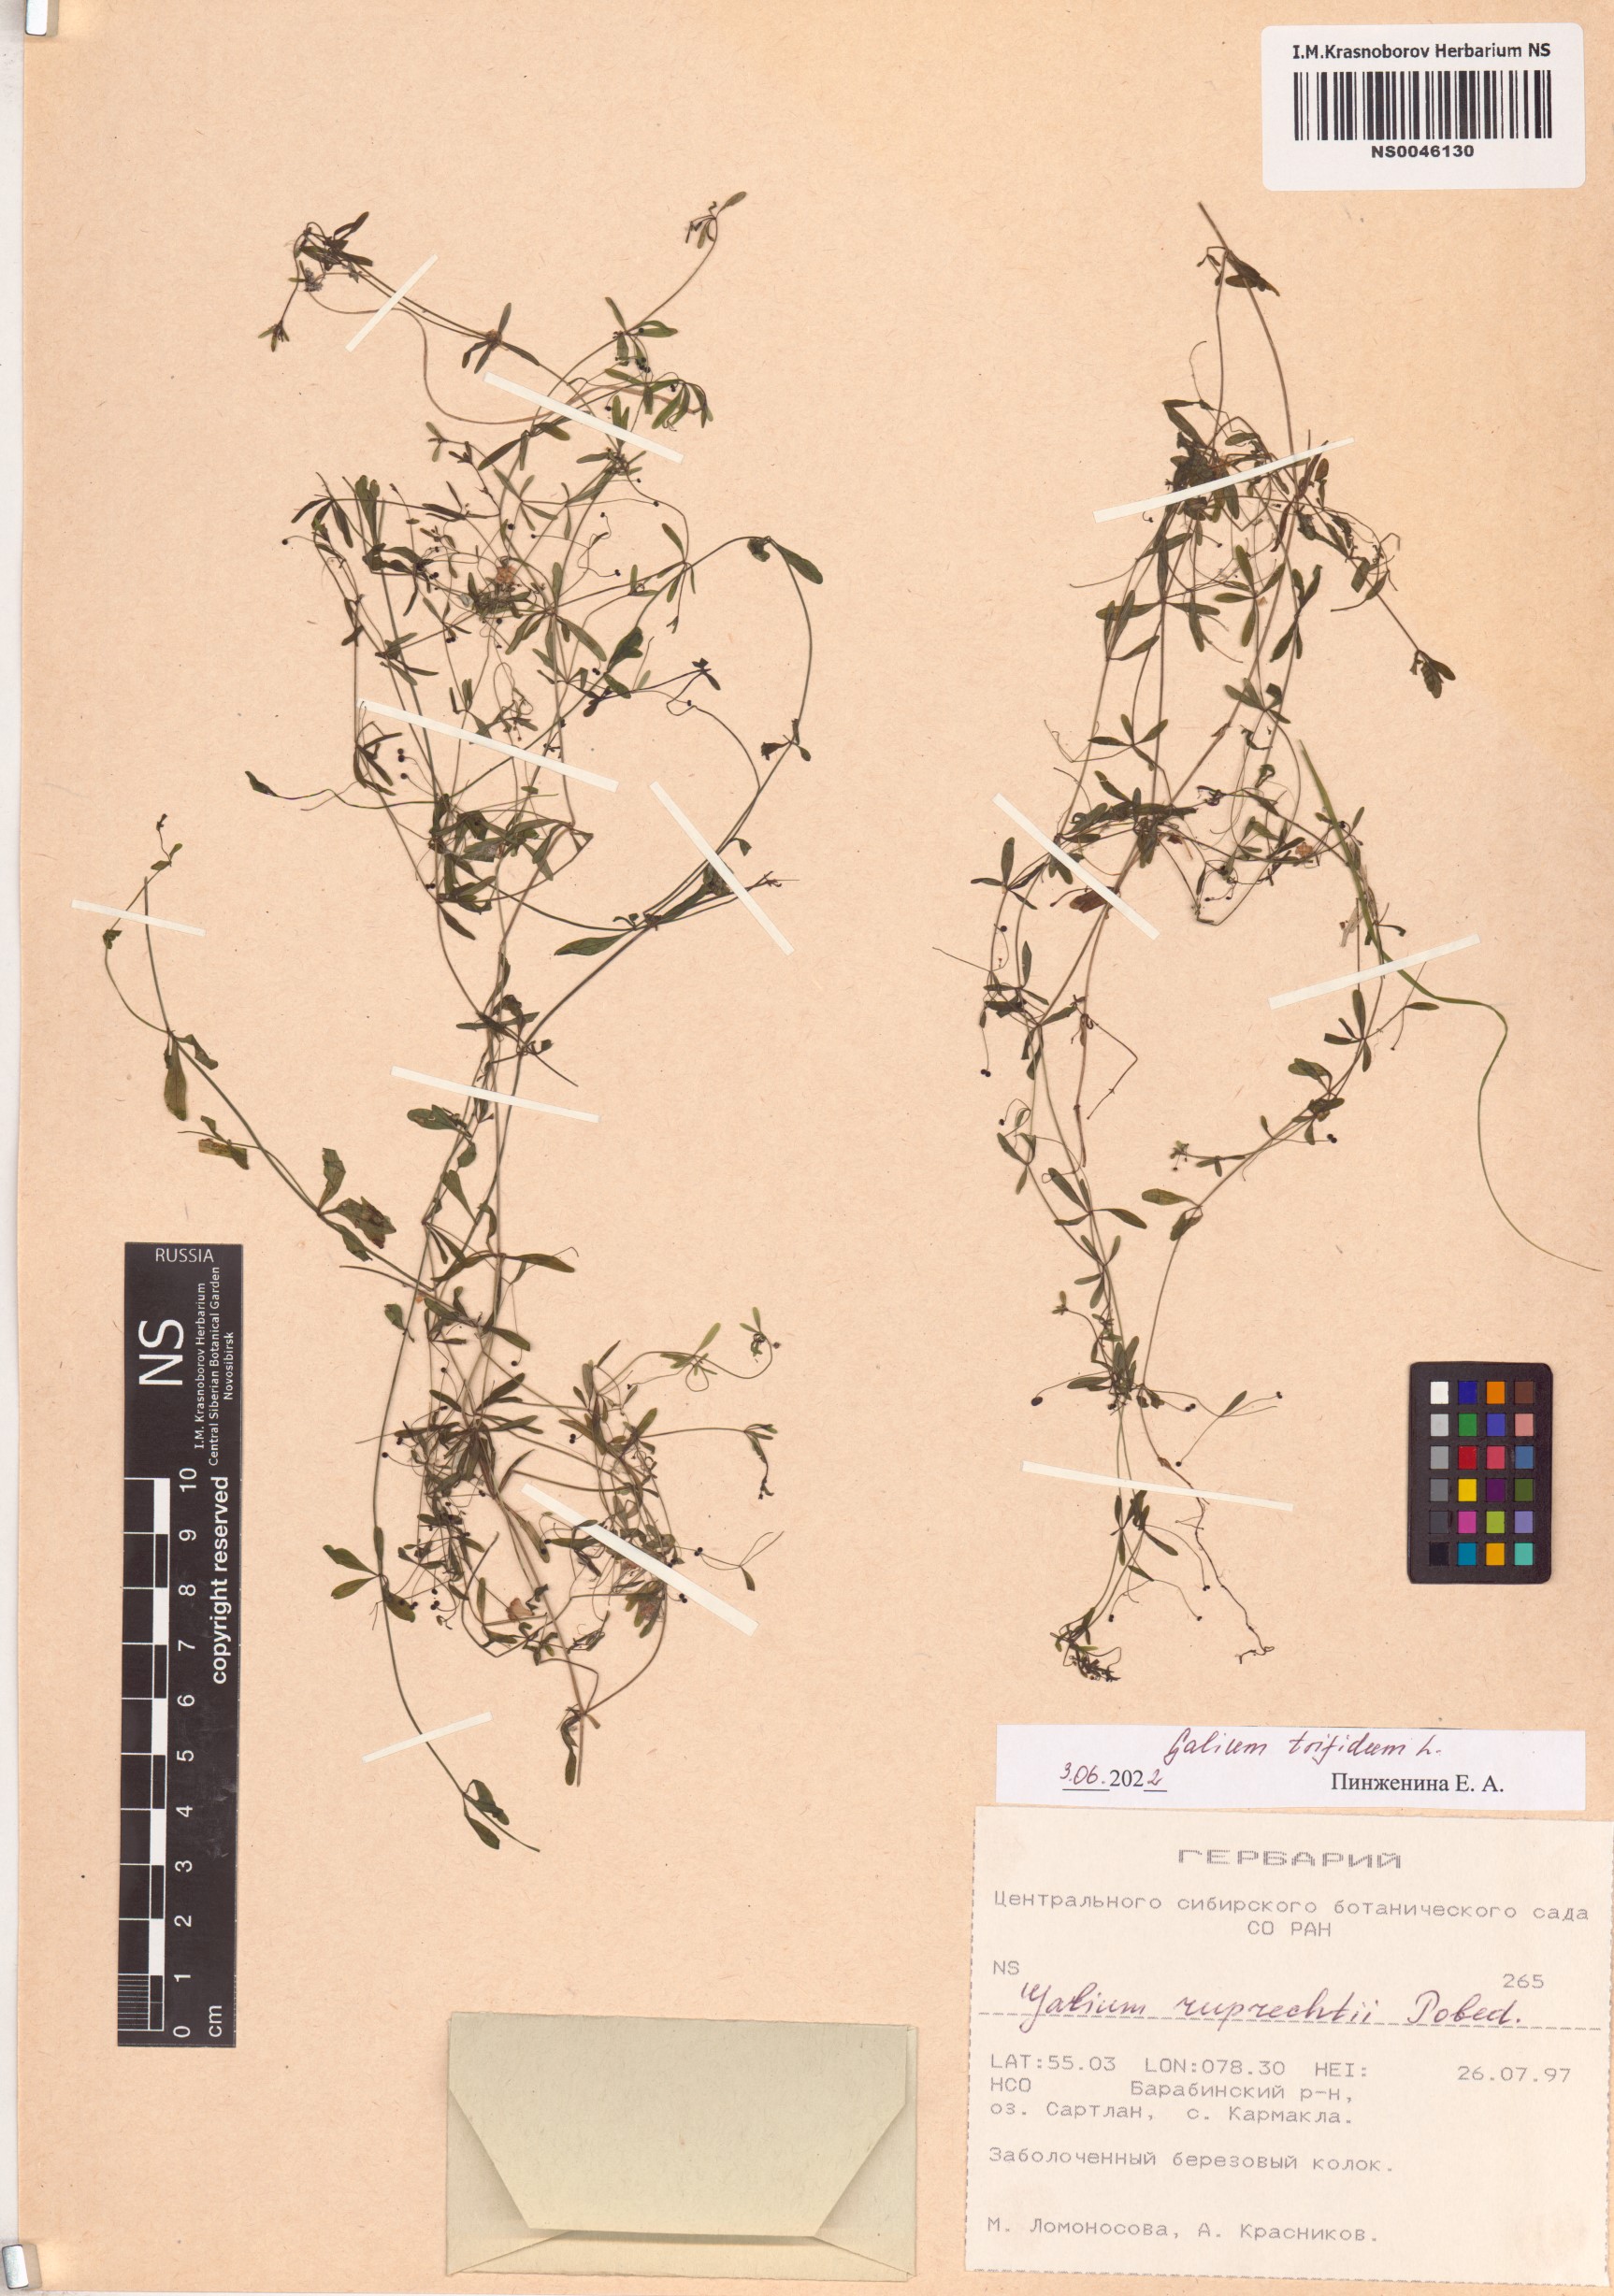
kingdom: Plantae
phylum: Tracheophyta
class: Magnoliopsida
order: Gentianales
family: Rubiaceae
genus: Galium
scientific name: Galium trifidum
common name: Small bedstraw
